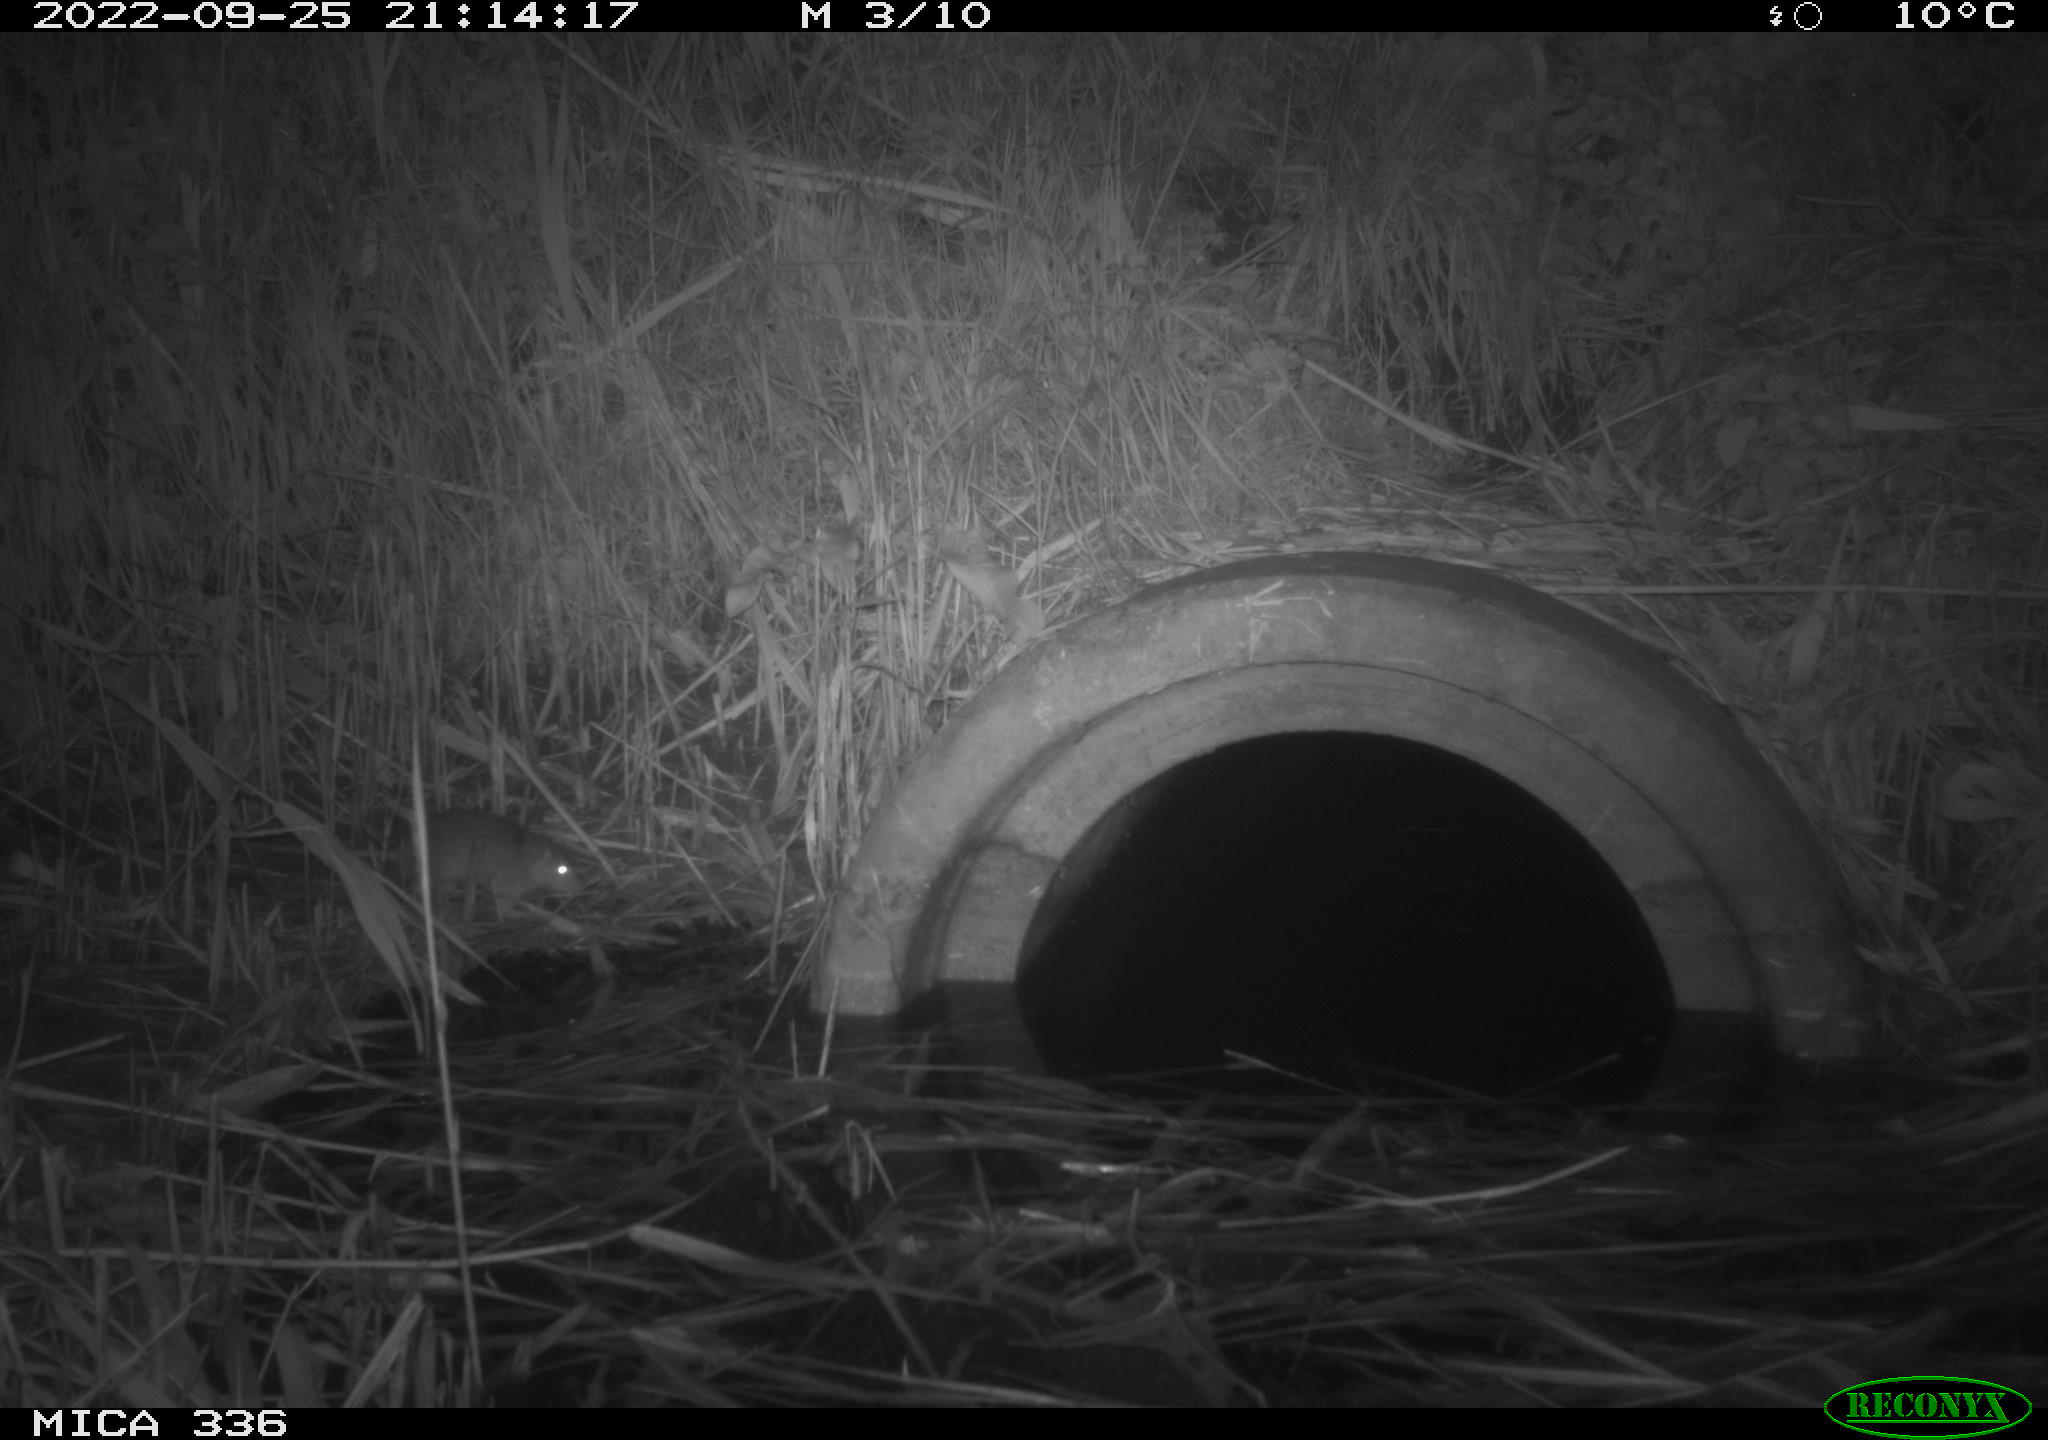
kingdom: Animalia
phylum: Chordata
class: Mammalia
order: Rodentia
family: Muridae
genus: Rattus
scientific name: Rattus norvegicus
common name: Brown rat
